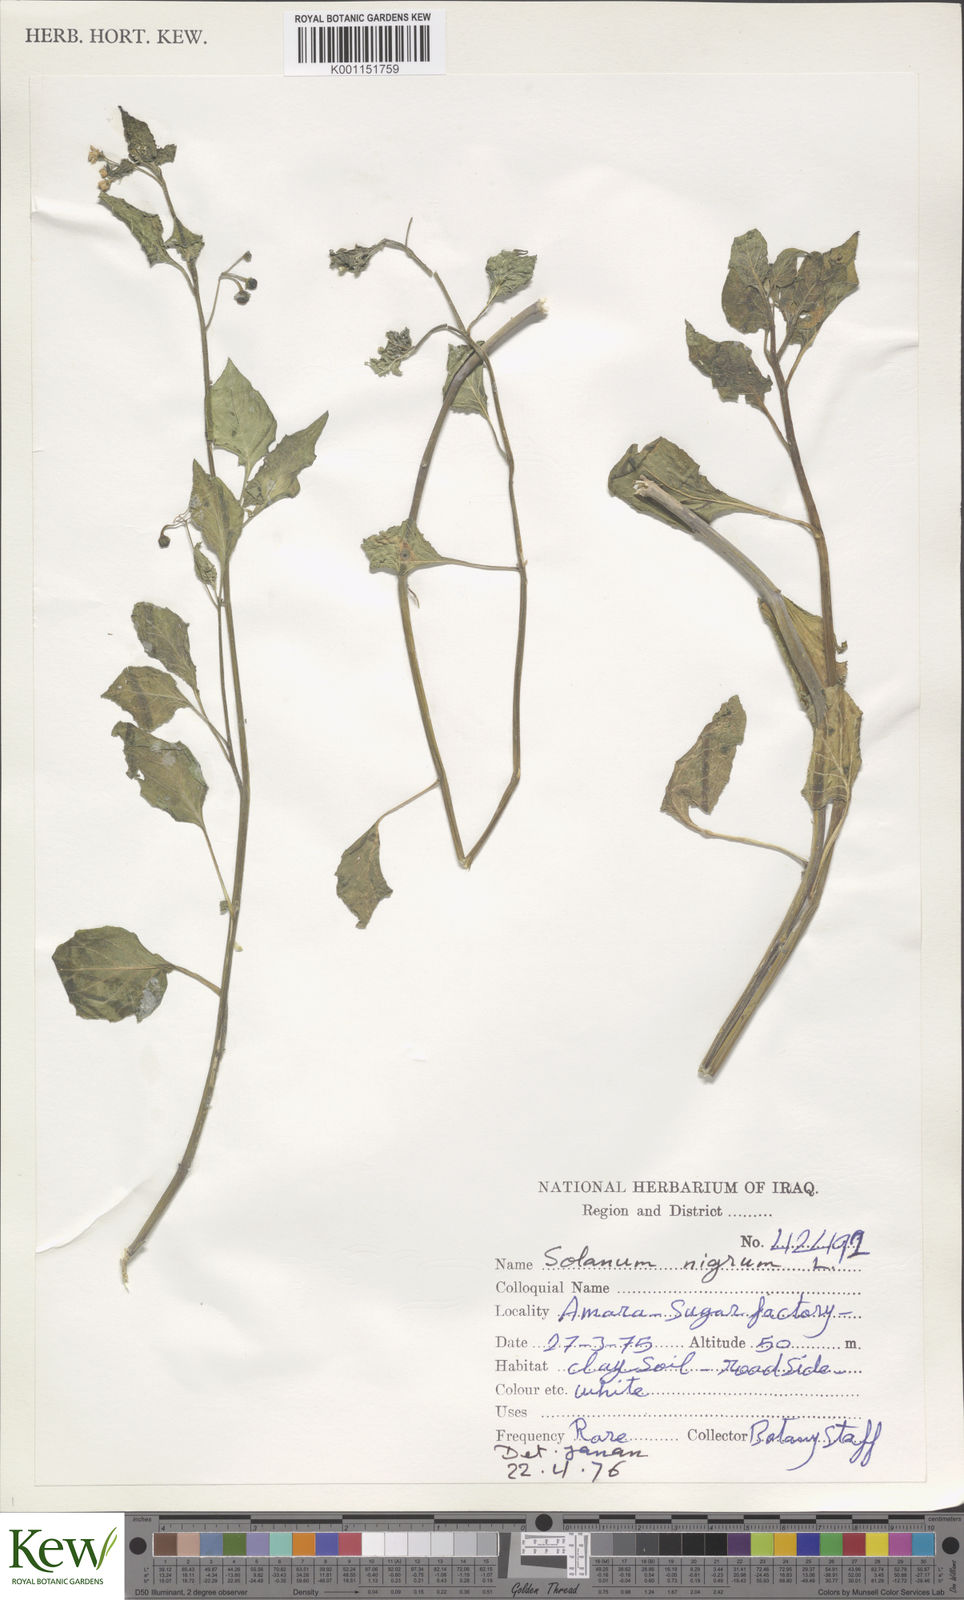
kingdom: Plantae
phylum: Tracheophyta
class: Magnoliopsida
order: Solanales
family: Solanaceae
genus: Solanum
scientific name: Solanum nigrum
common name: Black nightshade
